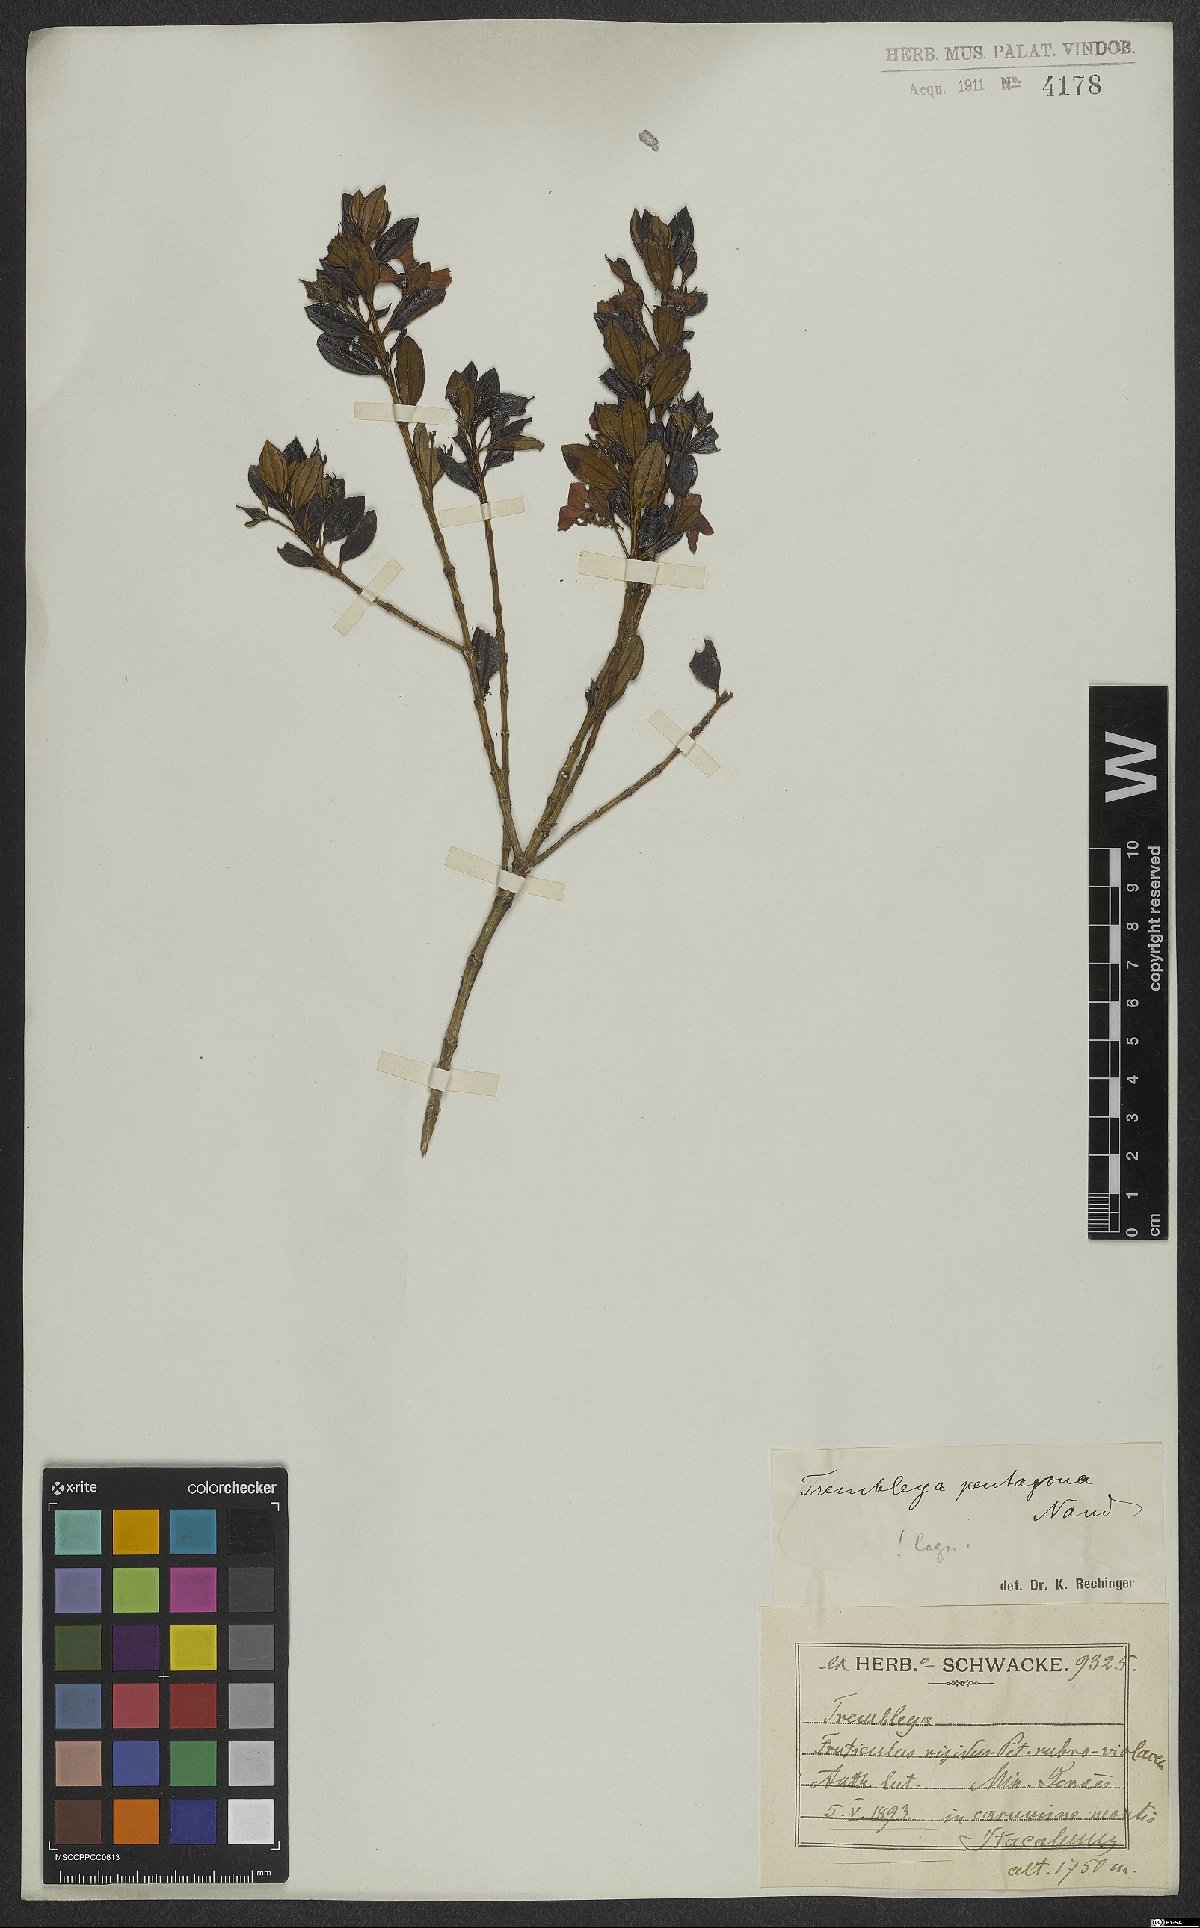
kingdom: Plantae
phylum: Tracheophyta
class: Magnoliopsida
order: Myrtales
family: Melastomataceae
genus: Microlicia
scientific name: Microlicia pentagona
